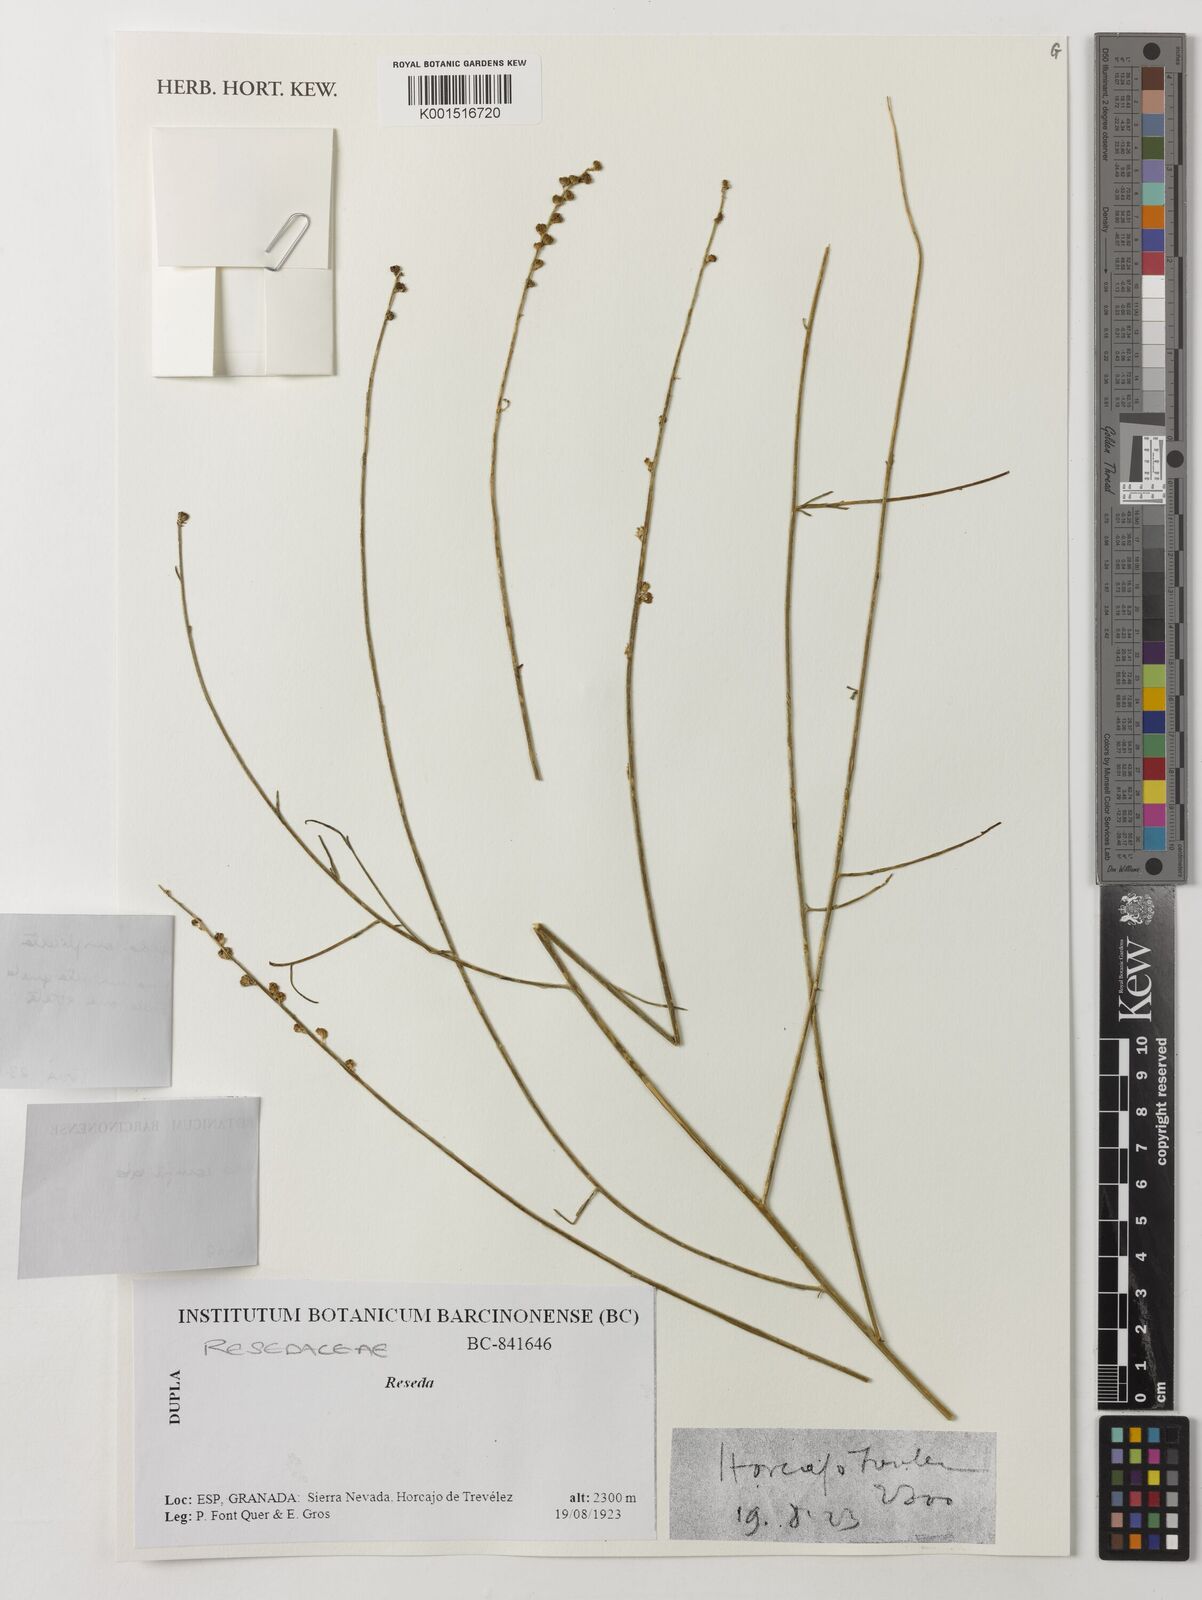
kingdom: Plantae
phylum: Tracheophyta
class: Magnoliopsida
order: Brassicales
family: Resedaceae
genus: Reseda
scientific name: Reseda complicata
